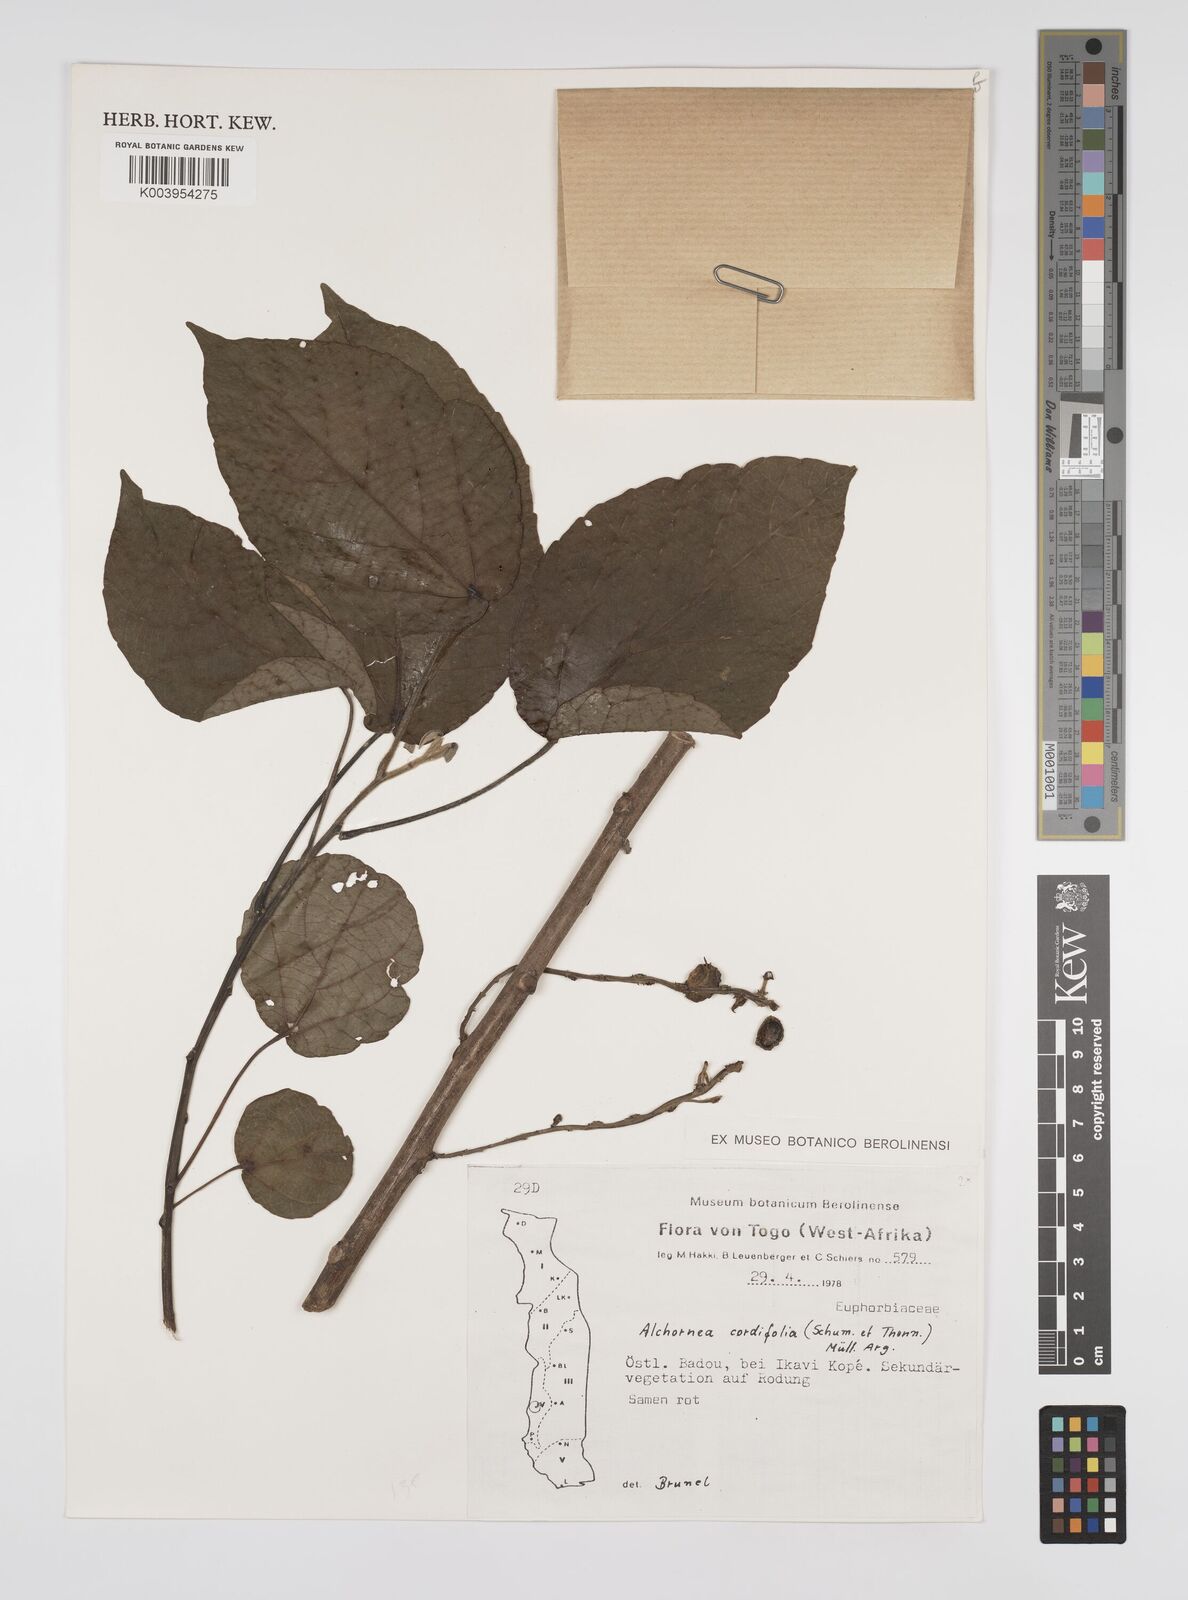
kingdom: Plantae
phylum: Tracheophyta
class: Magnoliopsida
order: Malpighiales
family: Euphorbiaceae
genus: Alchornea
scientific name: Alchornea cordifolia
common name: Christmasbush
